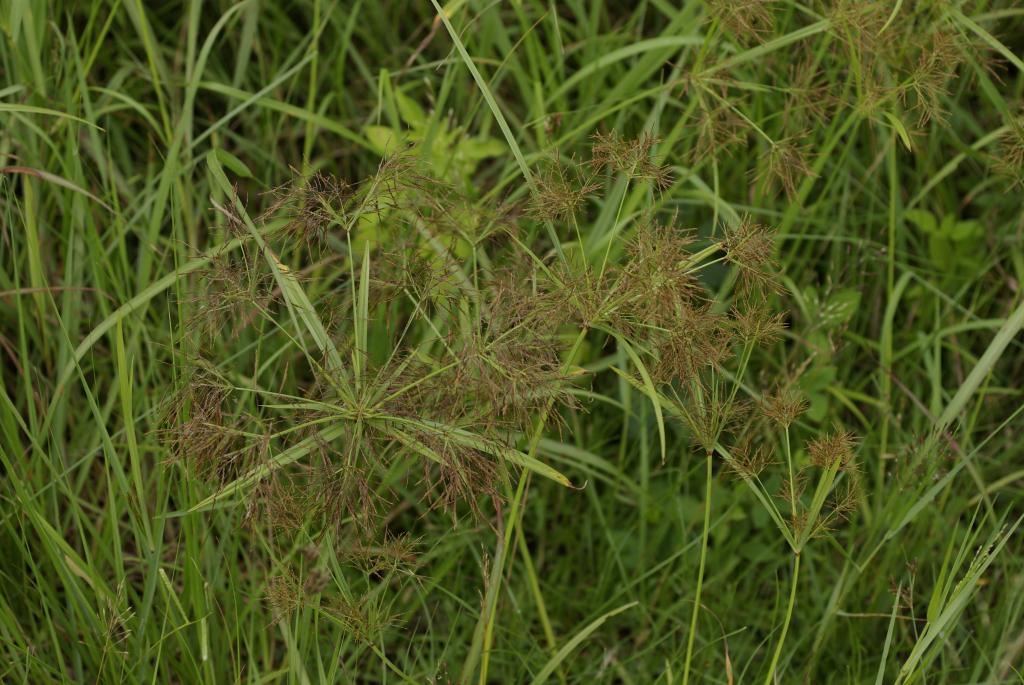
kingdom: Plantae
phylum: Tracheophyta
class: Liliopsida
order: Poales
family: Cyperaceae
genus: Cyperus
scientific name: Cyperus distans
